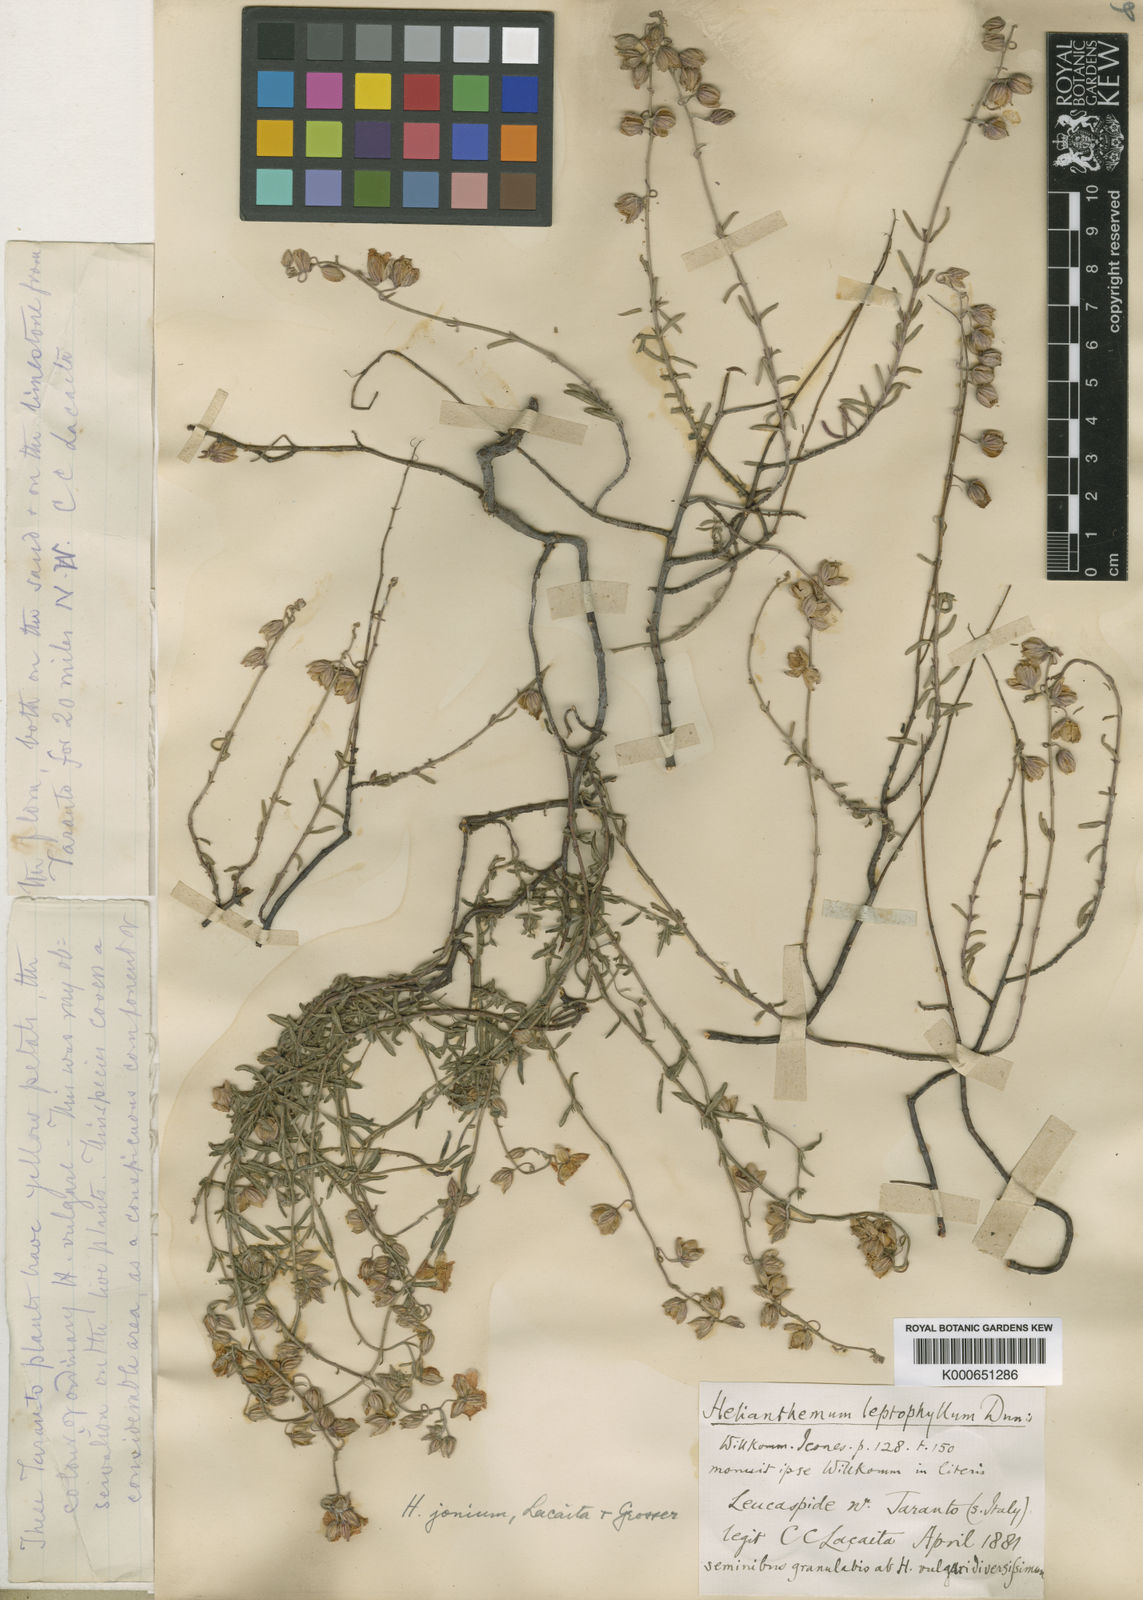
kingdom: Plantae
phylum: Tracheophyta
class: Magnoliopsida
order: Malvales
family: Cistaceae
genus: Helianthemum
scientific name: Helianthemum
